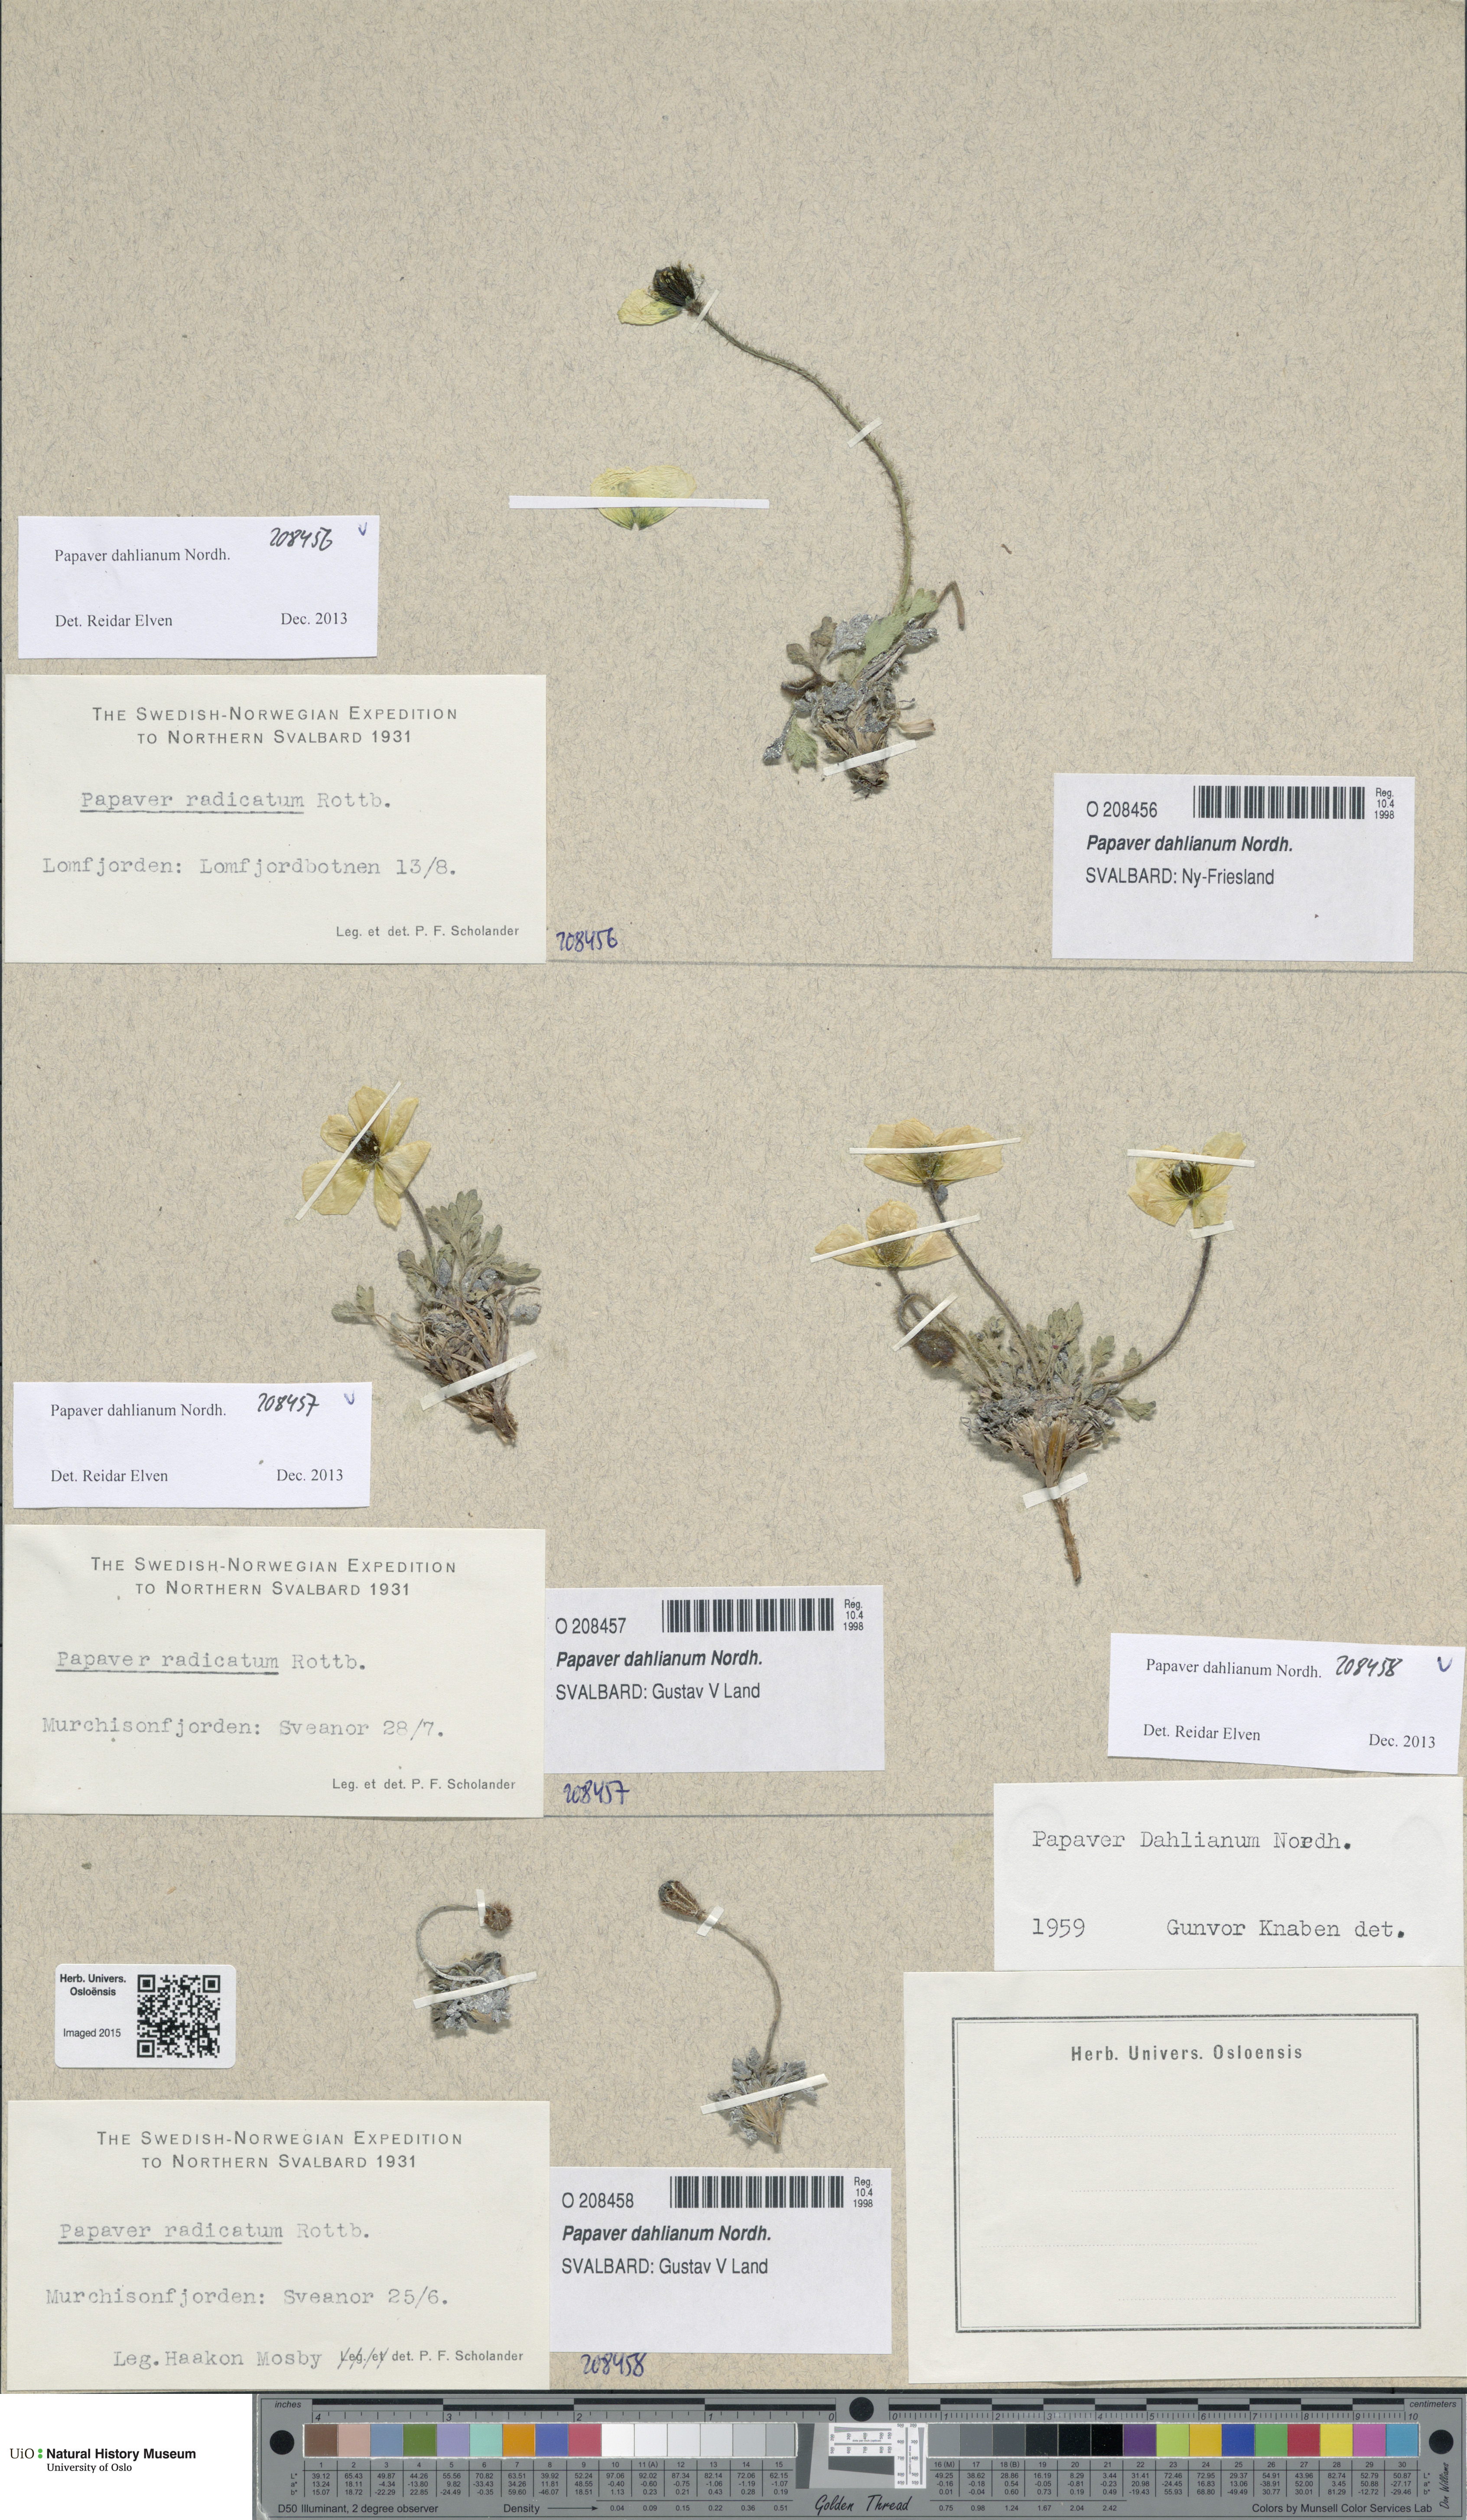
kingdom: Plantae
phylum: Tracheophyta
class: Magnoliopsida
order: Ranunculales
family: Papaveraceae
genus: Papaver
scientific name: Papaver radicatum
